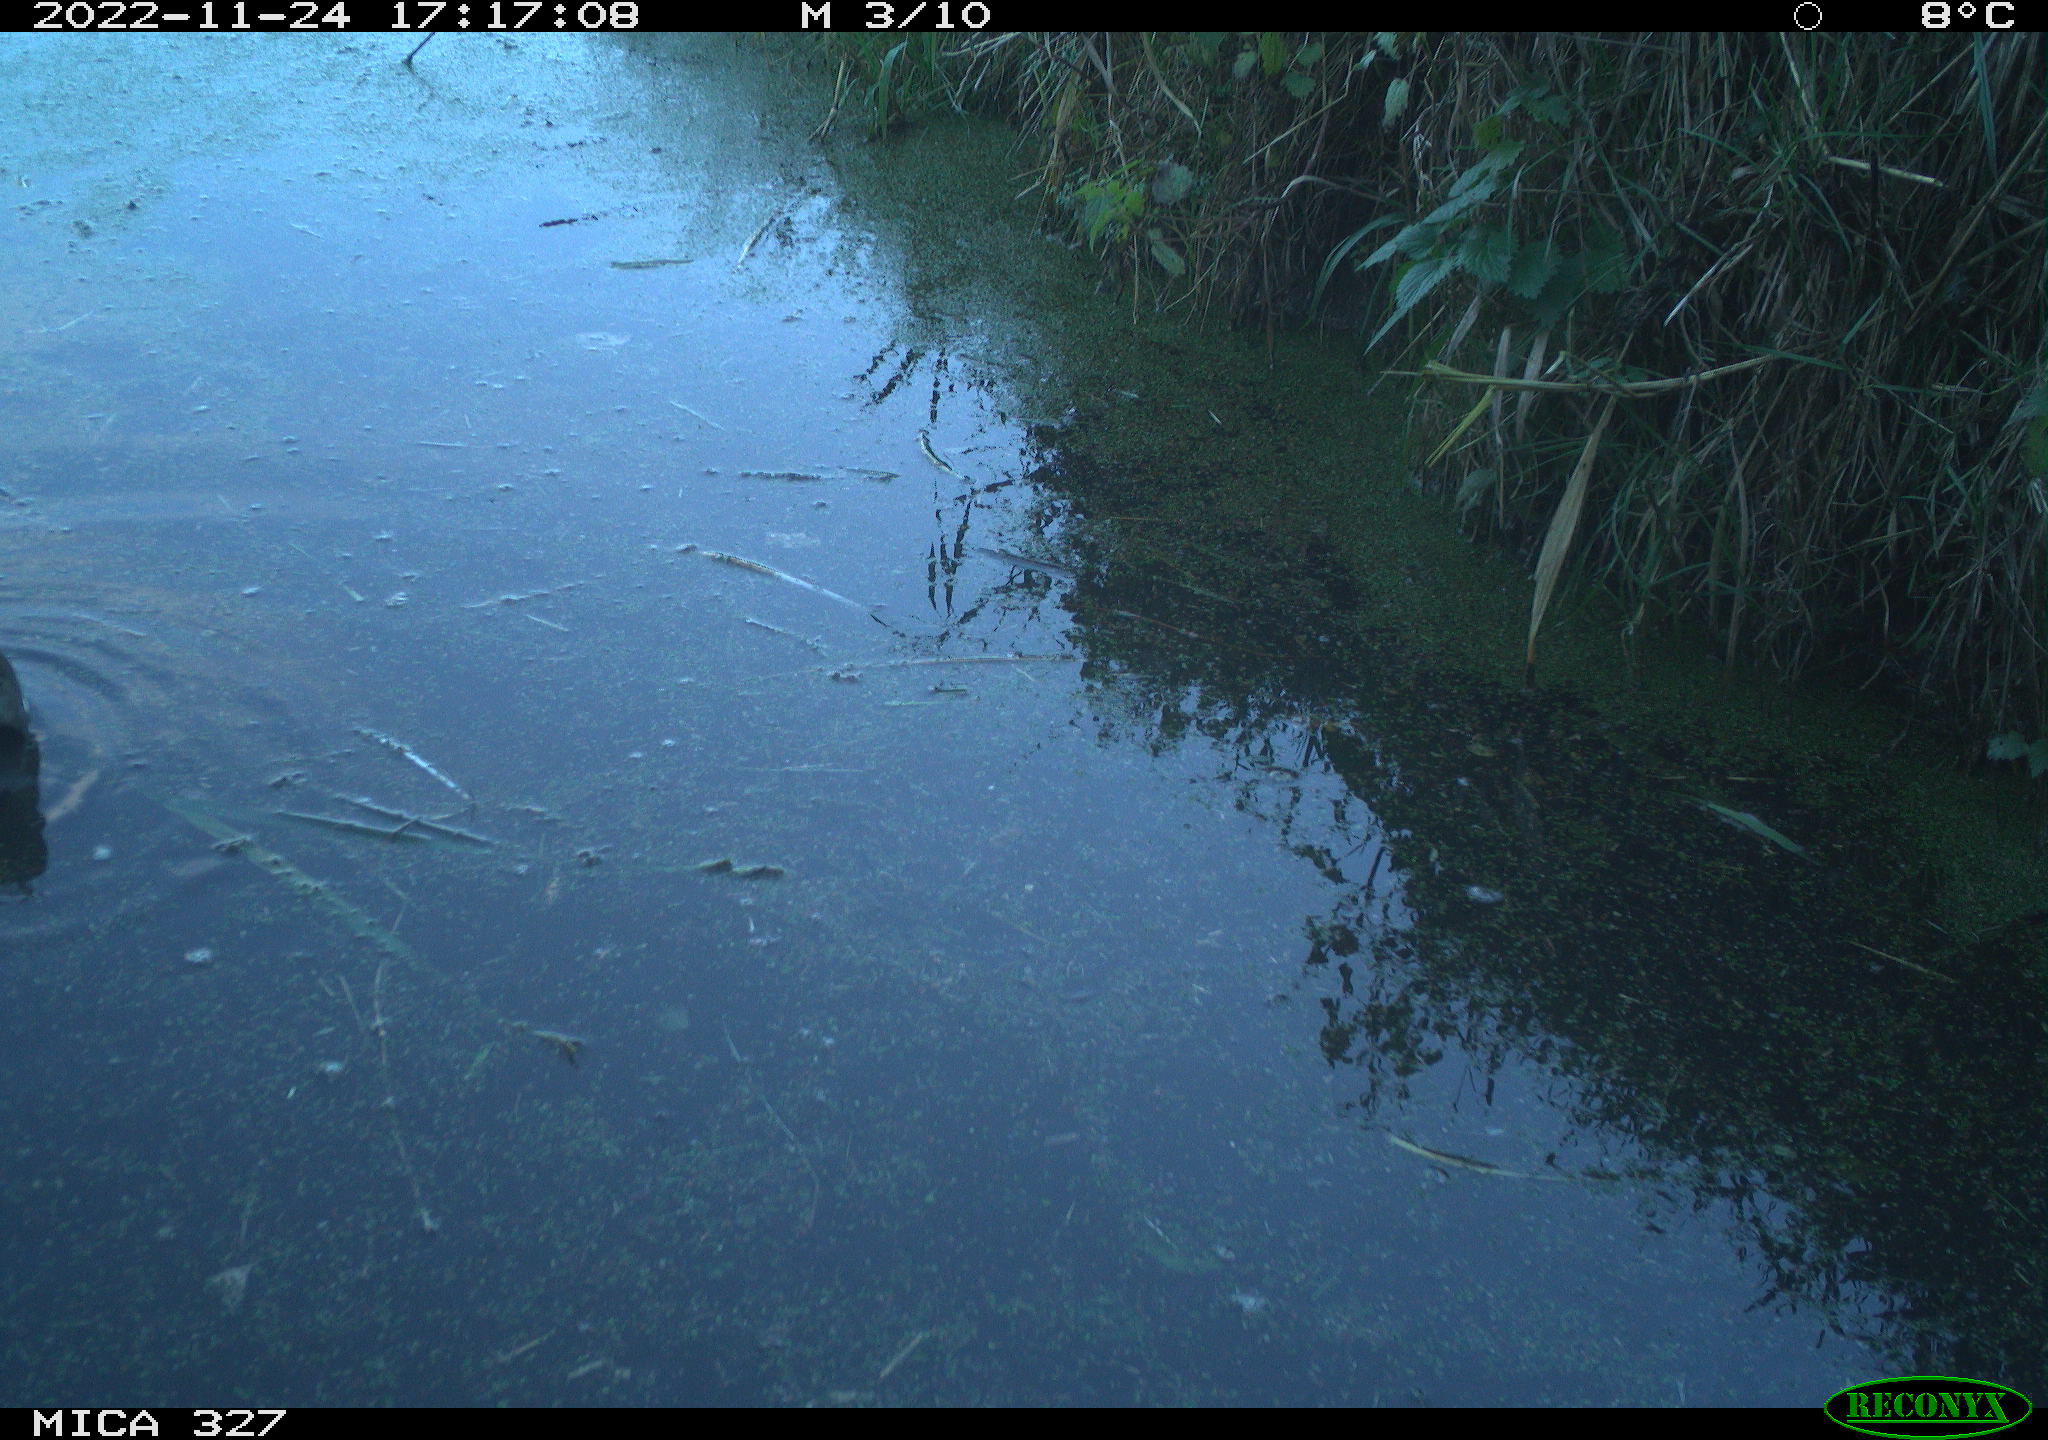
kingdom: Animalia
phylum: Chordata
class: Aves
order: Gruiformes
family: Rallidae
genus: Gallinula
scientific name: Gallinula chloropus
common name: Common moorhen
